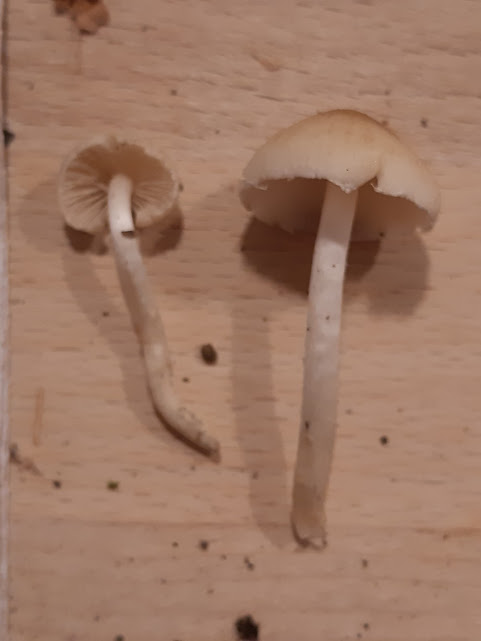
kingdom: Fungi
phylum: Basidiomycota
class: Agaricomycetes
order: Agaricales
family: Psathyrellaceae
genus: Candolleomyces
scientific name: Candolleomyces candolleanus
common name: Candolles mørkhat
